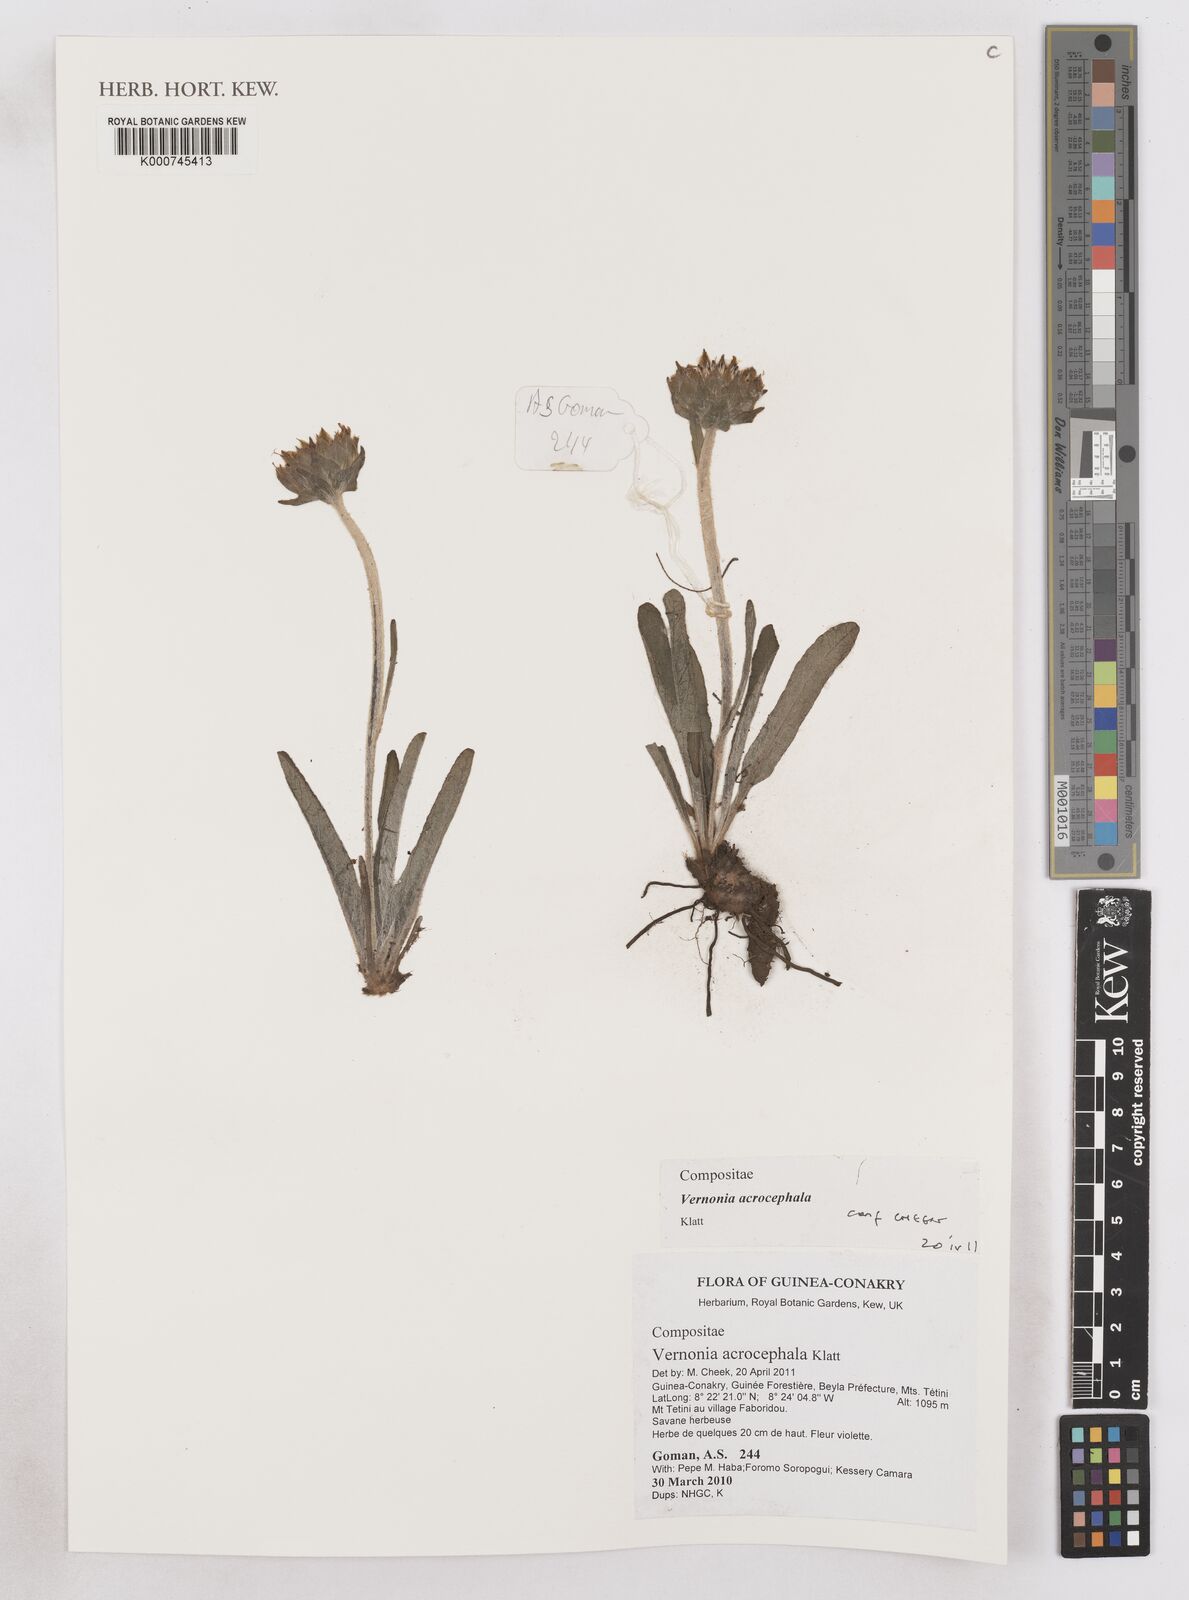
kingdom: Plantae
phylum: Tracheophyta
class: Magnoliopsida
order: Asterales
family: Asteraceae
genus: Vernonella
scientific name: Vernonella acrocephala
